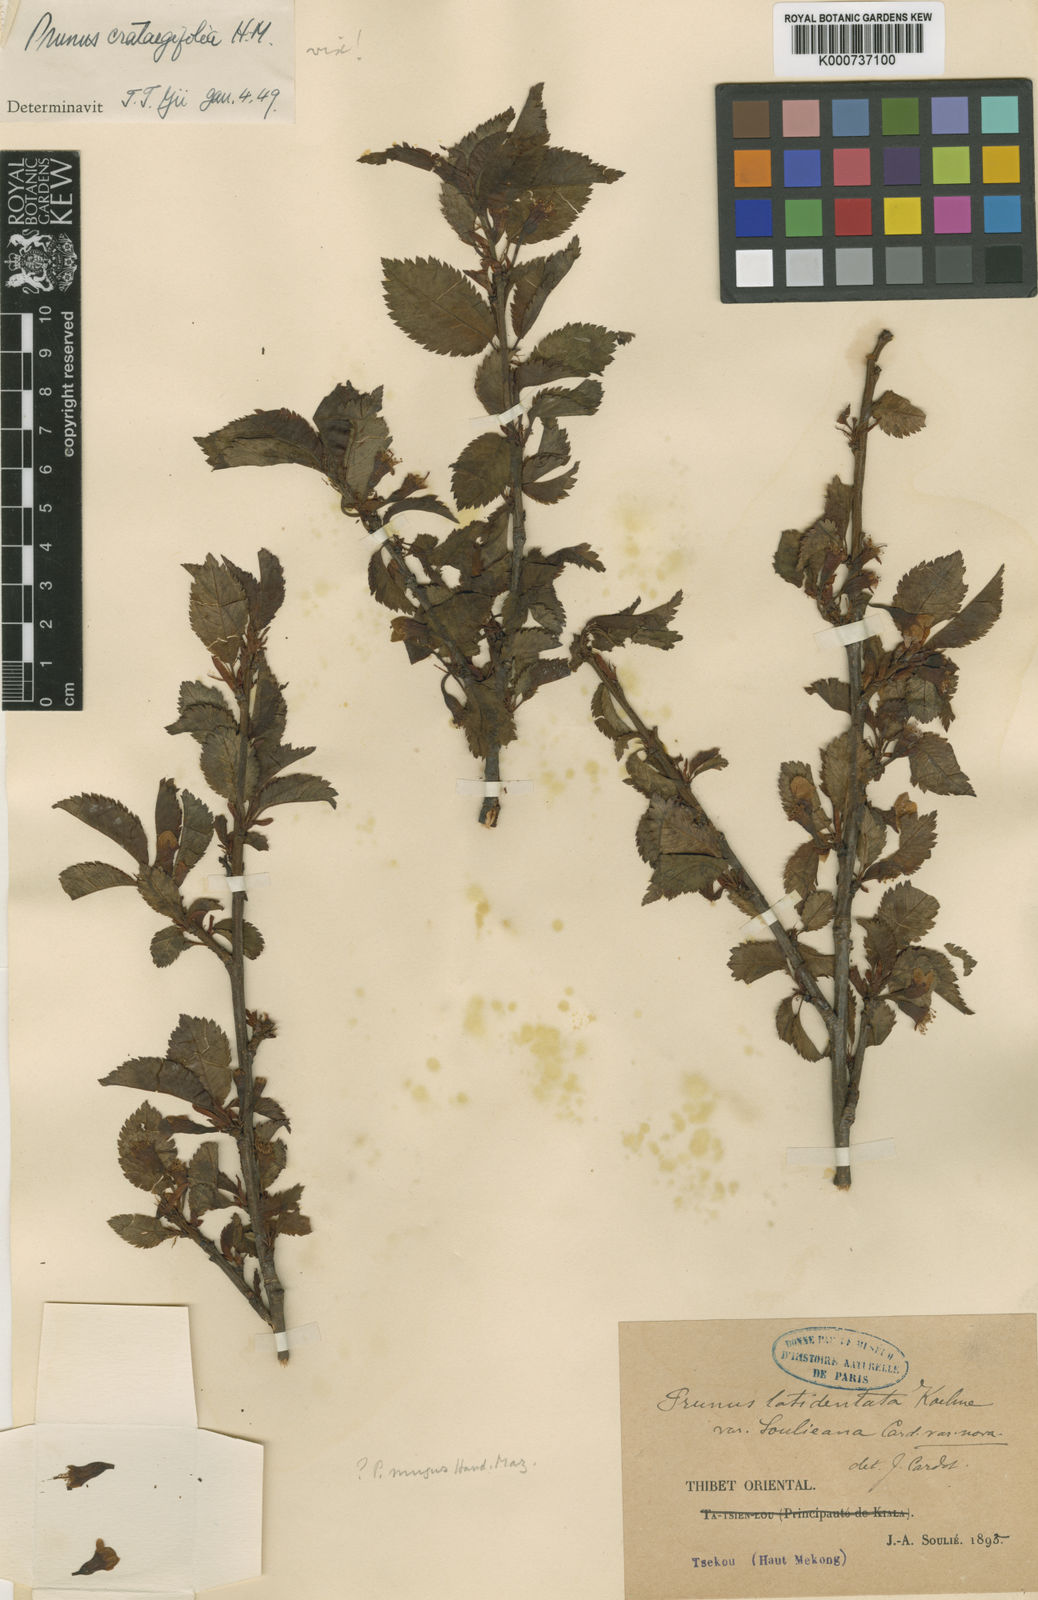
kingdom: Plantae
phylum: Tracheophyta
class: Magnoliopsida
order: Rosales
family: Rosaceae
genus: Prunus
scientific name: Prunus trichostoma
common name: Ribbed cherry
